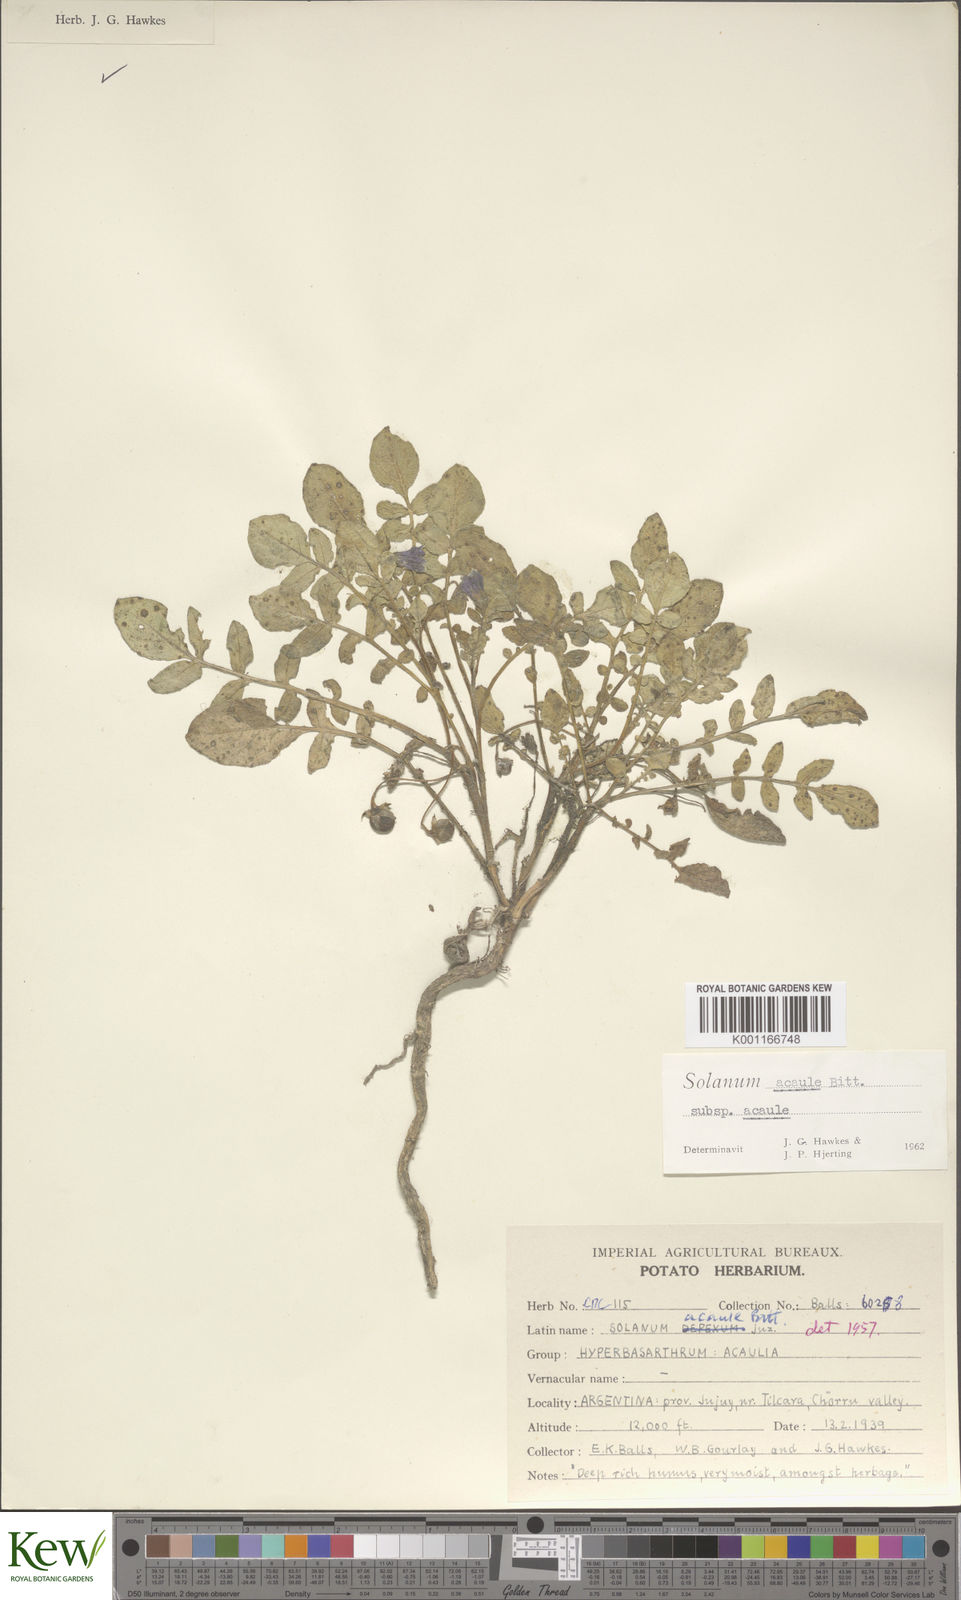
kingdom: Plantae
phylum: Tracheophyta
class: Magnoliopsida
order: Solanales
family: Solanaceae
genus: Solanum
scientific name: Solanum acaule
